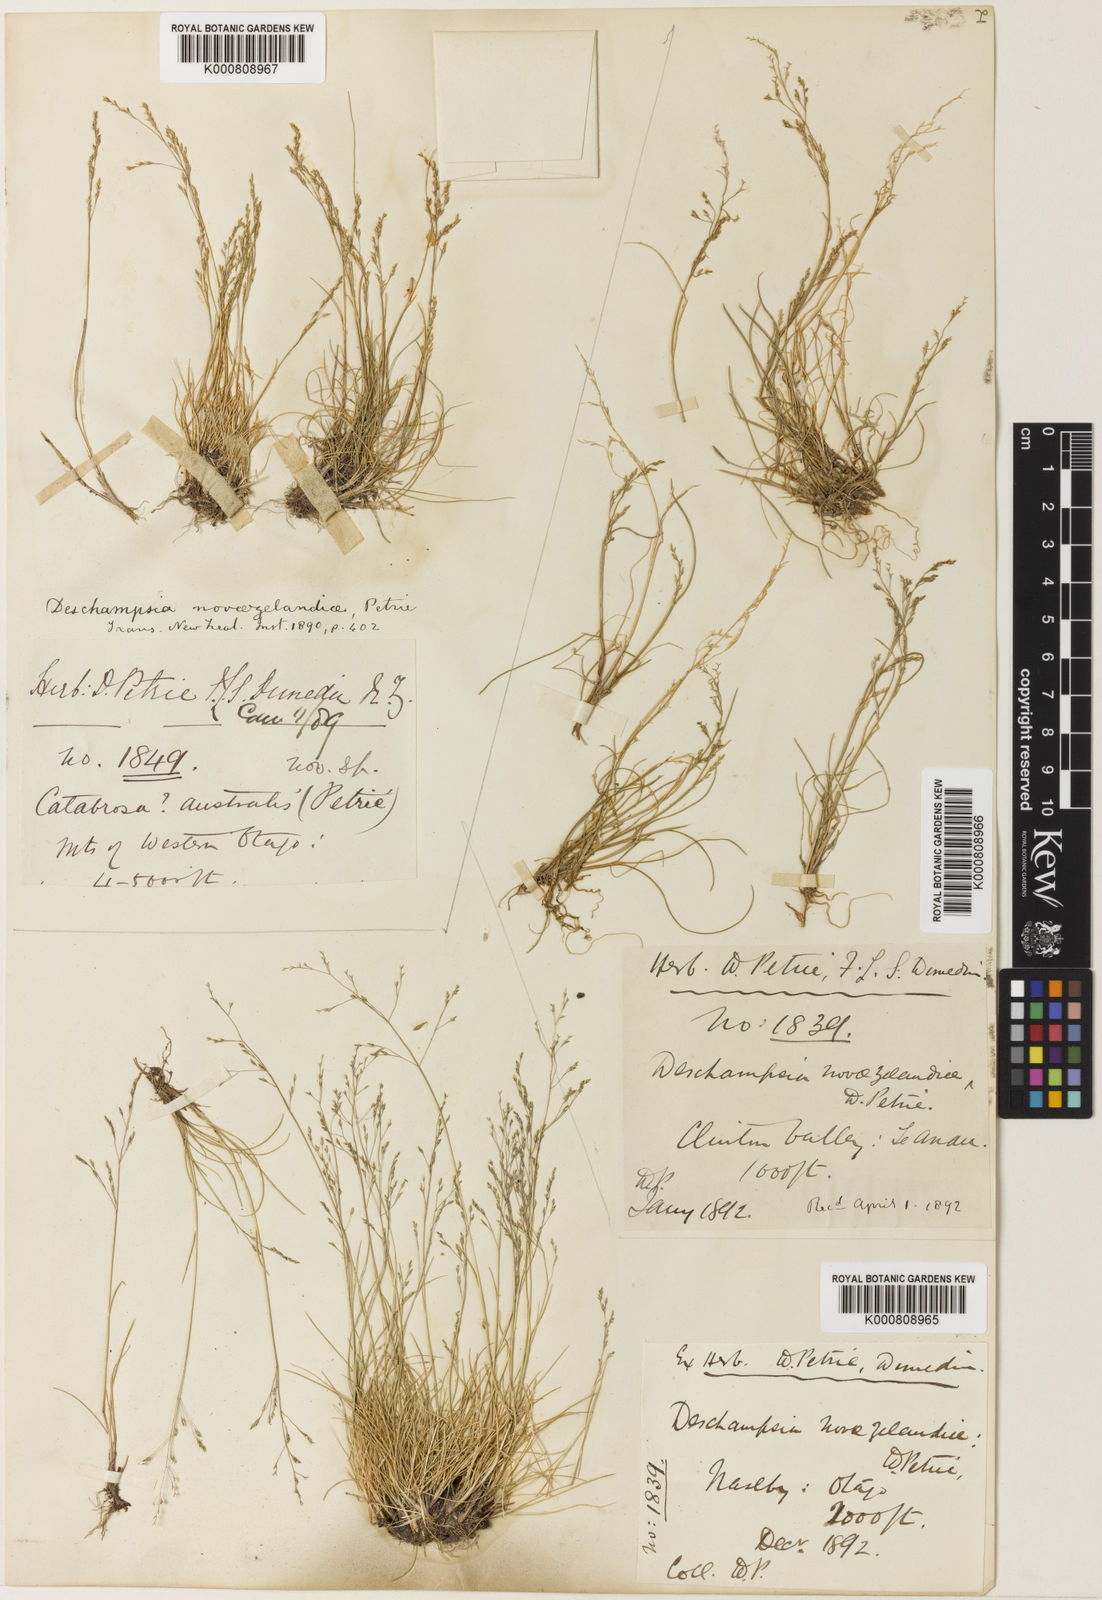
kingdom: Plantae
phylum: Tracheophyta
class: Liliopsida
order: Poales
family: Poaceae
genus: Deschampsia
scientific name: Deschampsia chapmanii
